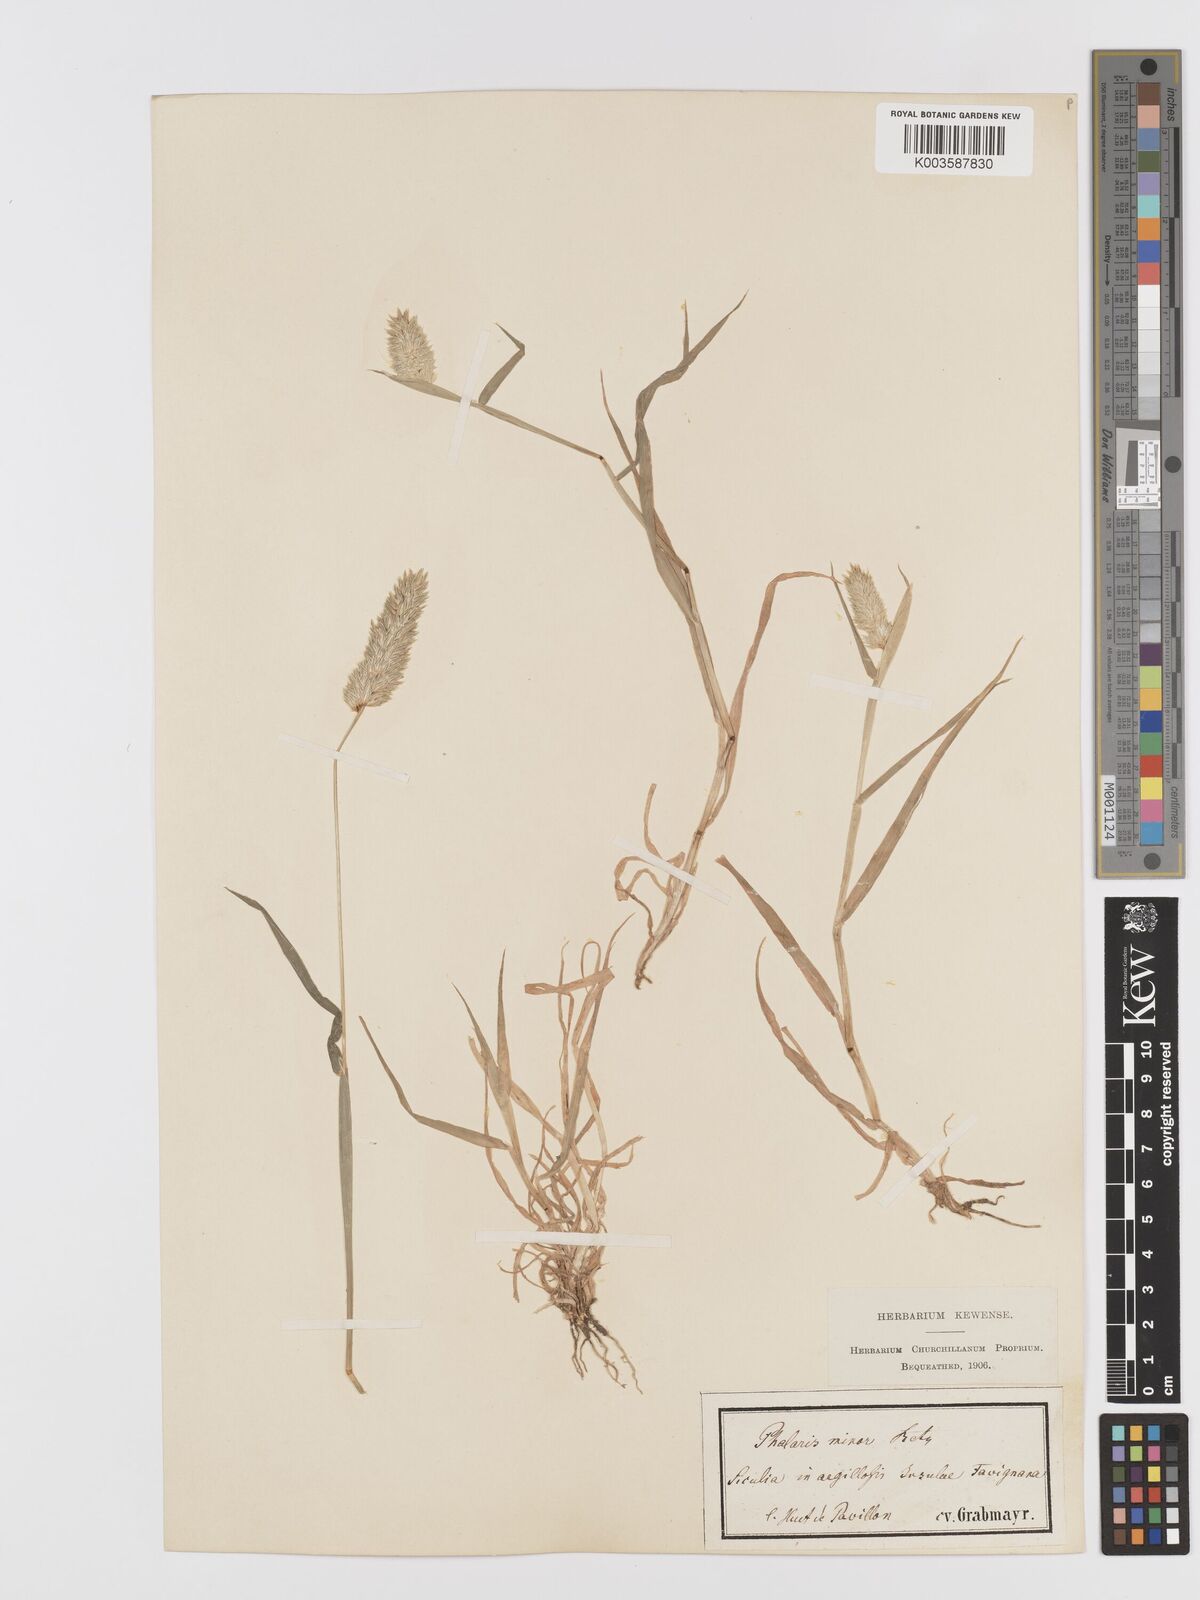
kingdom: Plantae
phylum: Tracheophyta
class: Liliopsida
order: Poales
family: Poaceae
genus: Phalaris
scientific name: Phalaris minor
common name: Littleseed canarygrass
